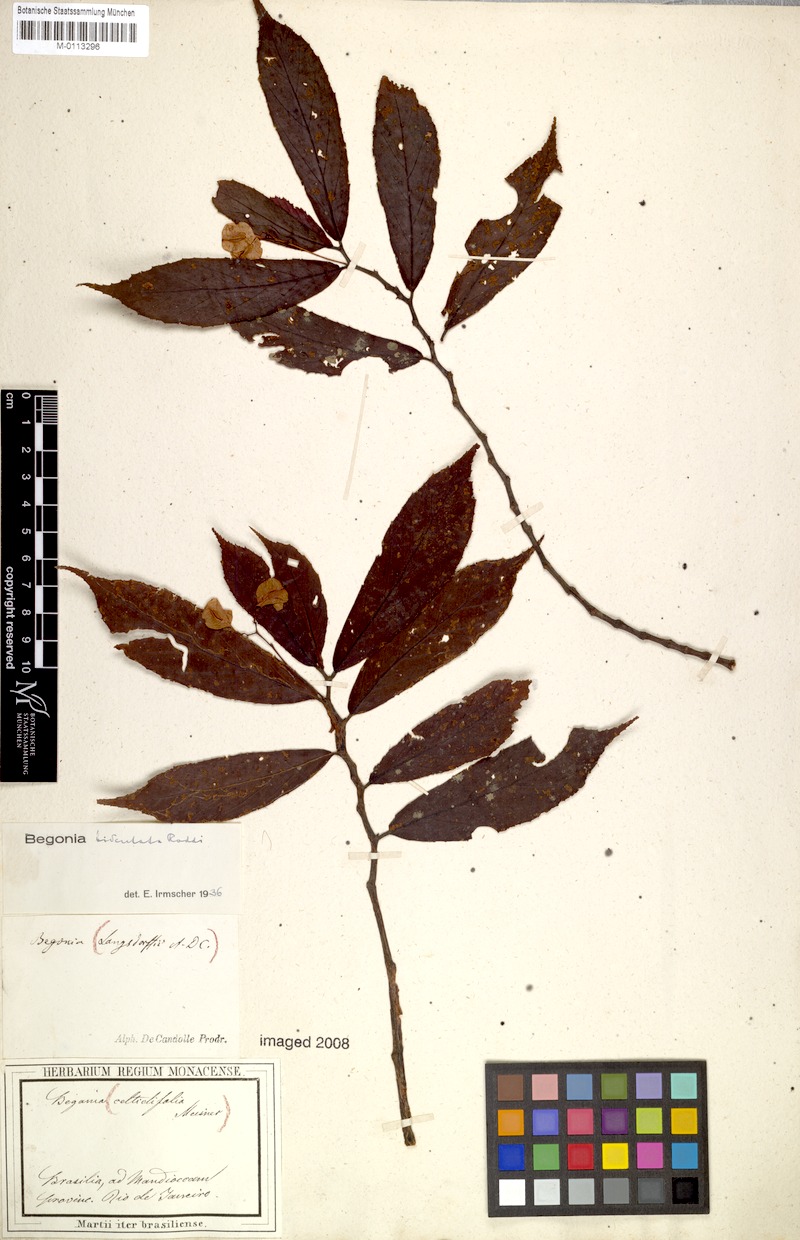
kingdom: Plantae
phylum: Tracheophyta
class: Magnoliopsida
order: Cucurbitales
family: Begoniaceae
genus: Begonia
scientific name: Begonia bidentata
